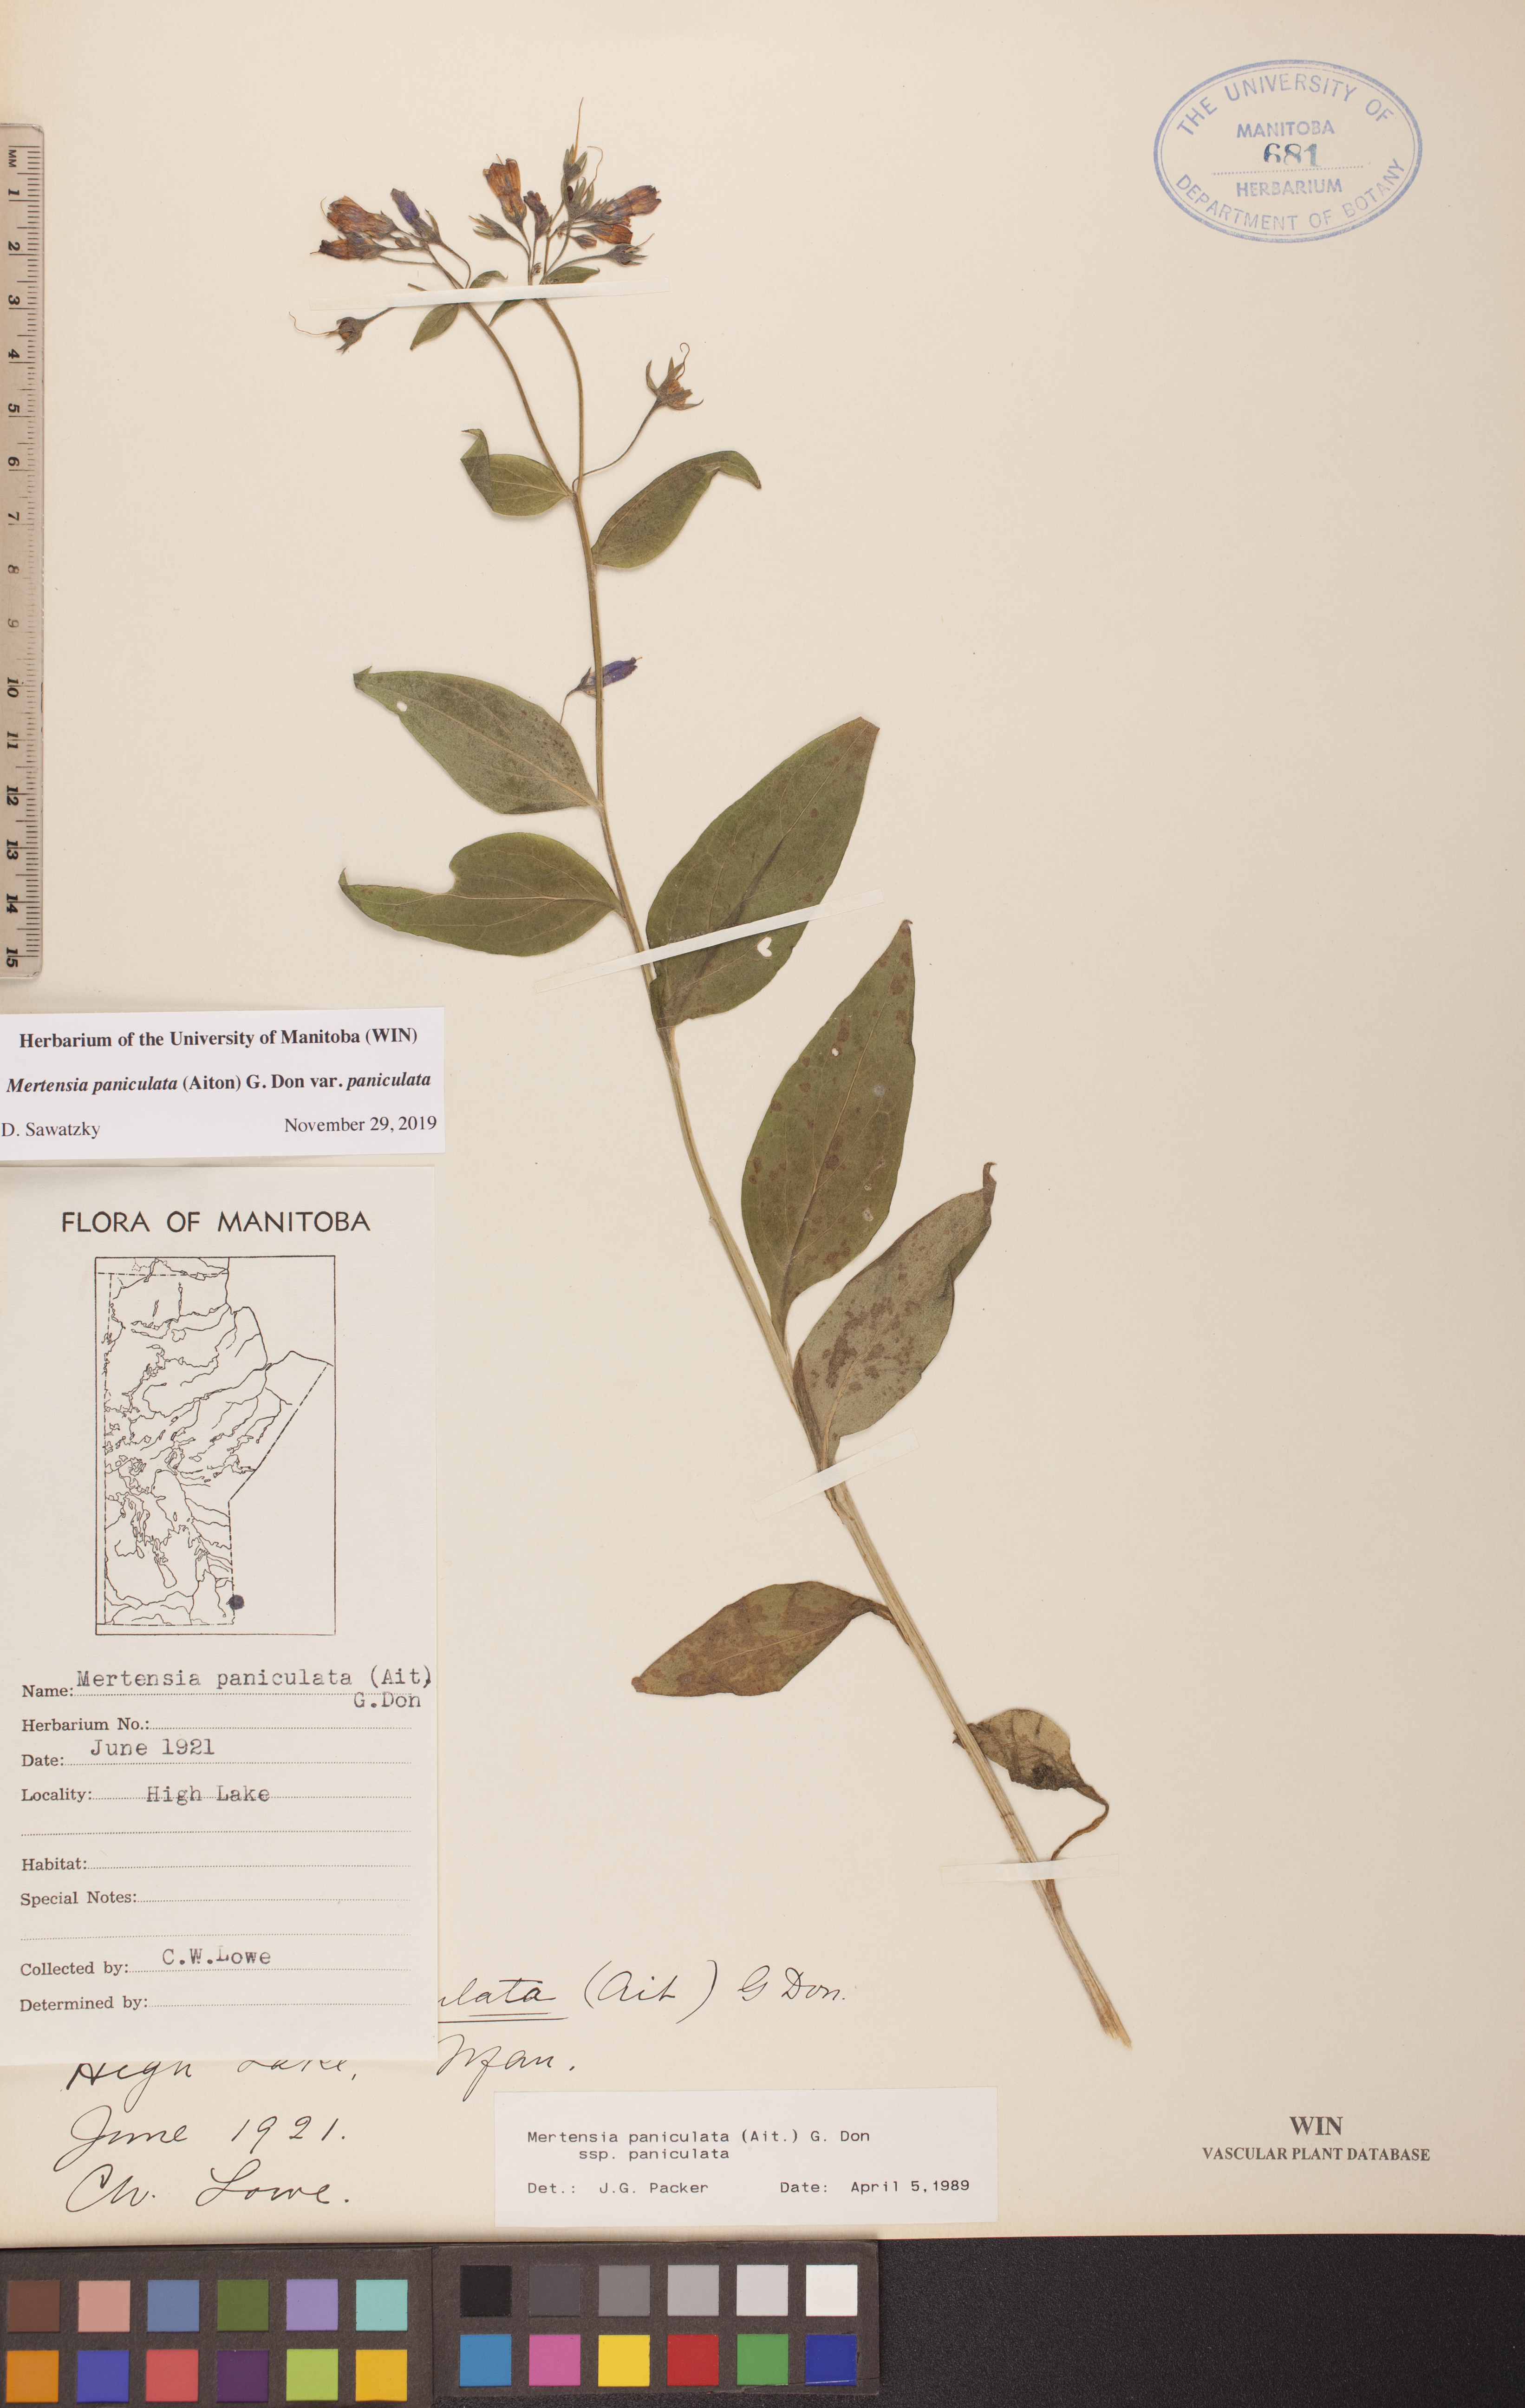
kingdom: Plantae
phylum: Tracheophyta
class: Magnoliopsida
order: Boraginales
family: Boraginaceae
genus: Mertensia
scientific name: Mertensia paniculata
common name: Panicled bluebells
